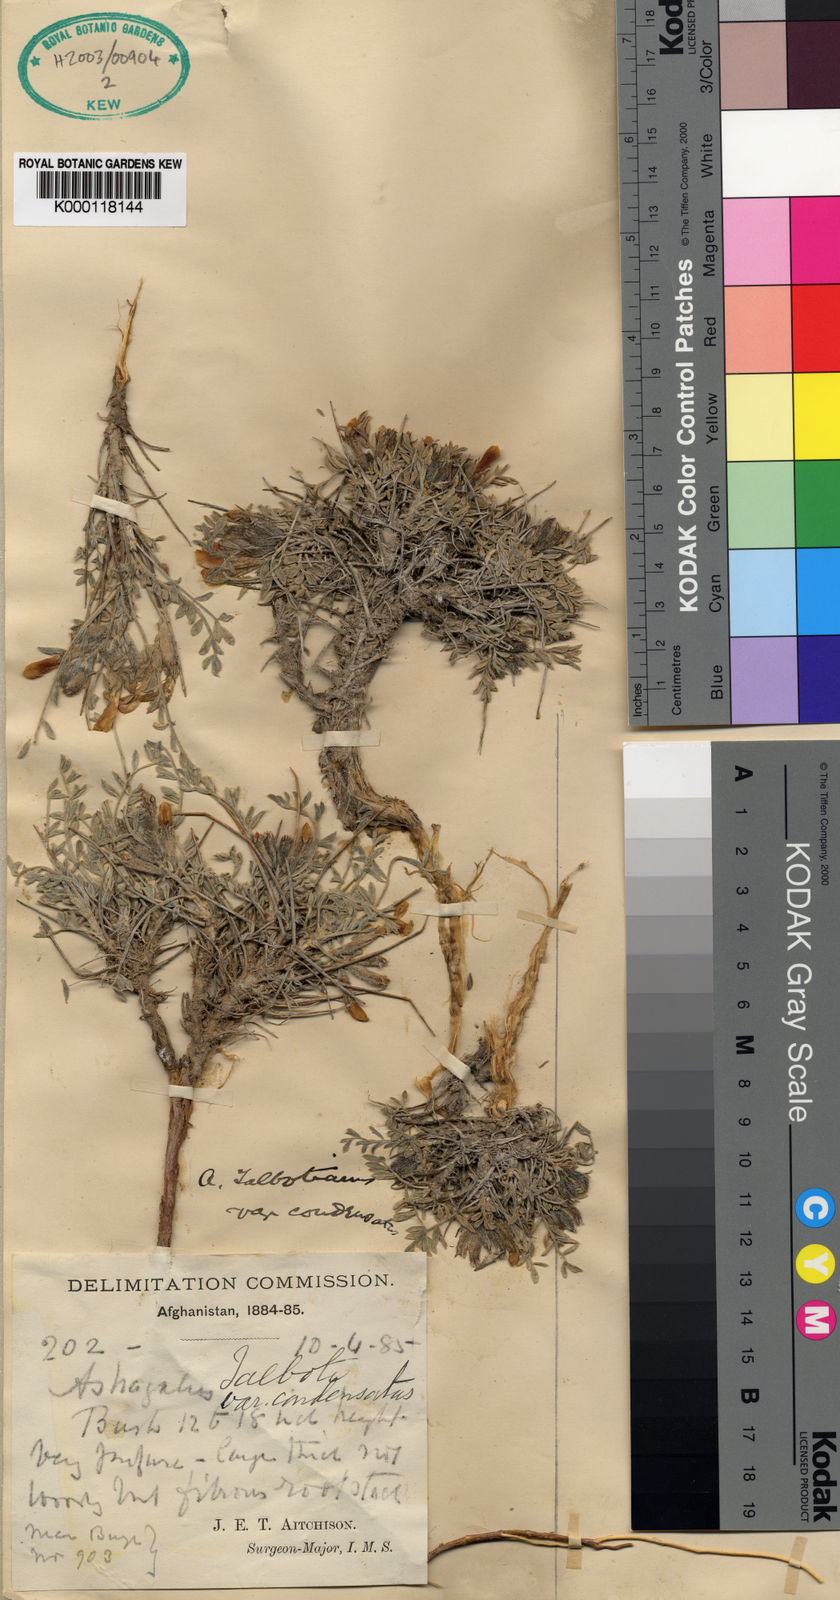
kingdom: Plantae
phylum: Tracheophyta
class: Magnoliopsida
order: Fabales
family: Fabaceae
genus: Astragalus
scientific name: Astragalus
